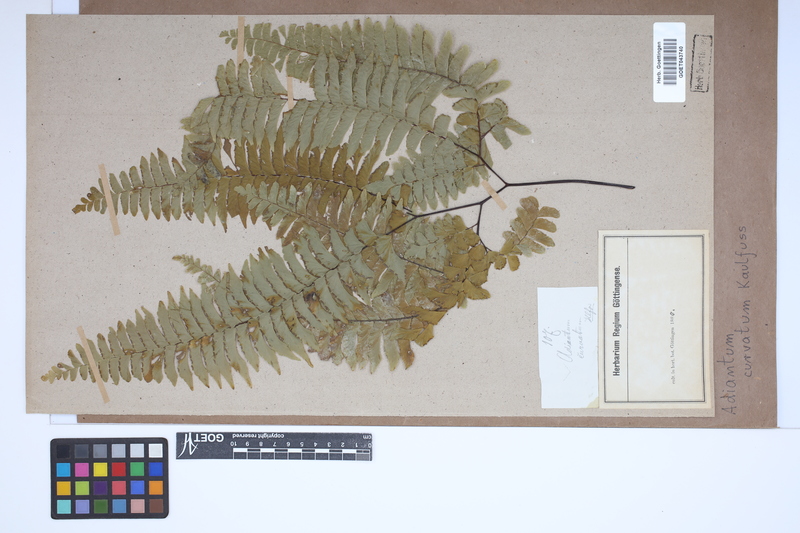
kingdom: Plantae
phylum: Tracheophyta
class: Polypodiopsida
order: Polypodiales
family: Pteridaceae
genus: Adiantum
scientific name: Adiantum curvatum
